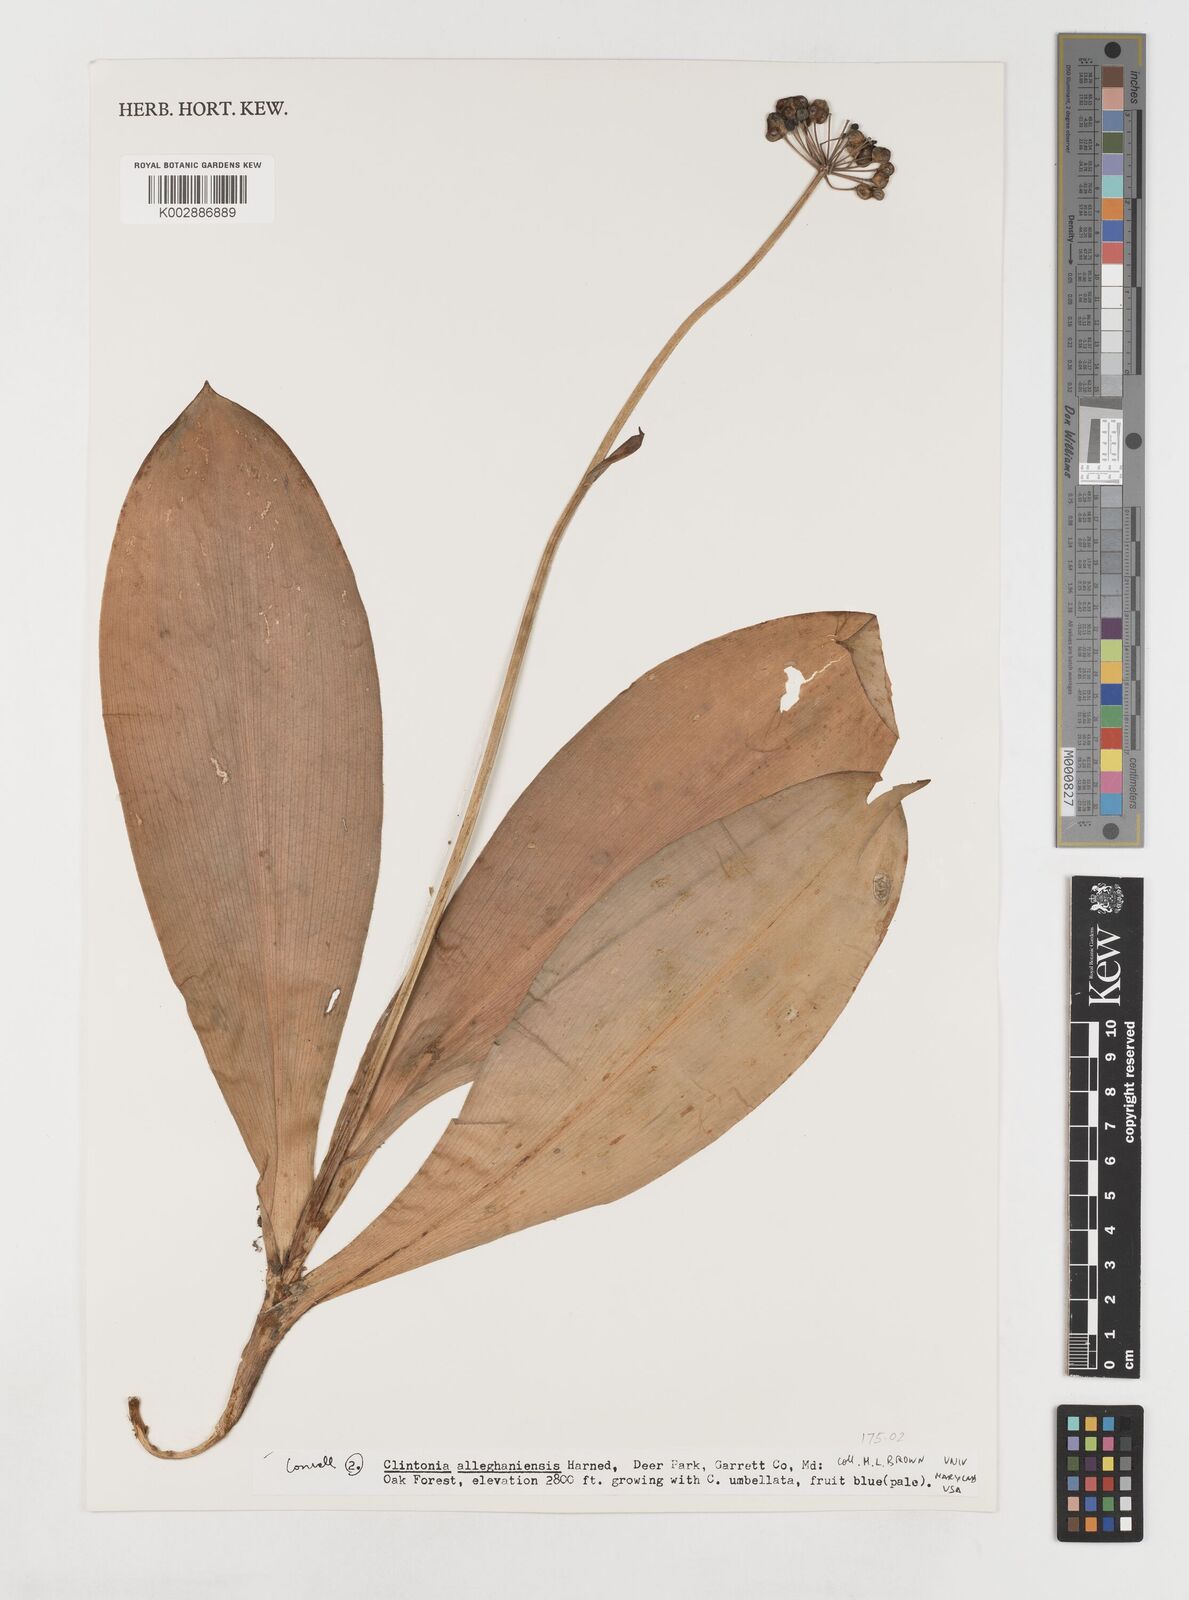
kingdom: Plantae
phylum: Tracheophyta
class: Liliopsida
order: Liliales
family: Liliaceae
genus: Clintonia
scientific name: Clintonia umbellulata
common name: Speckle wood-lily
